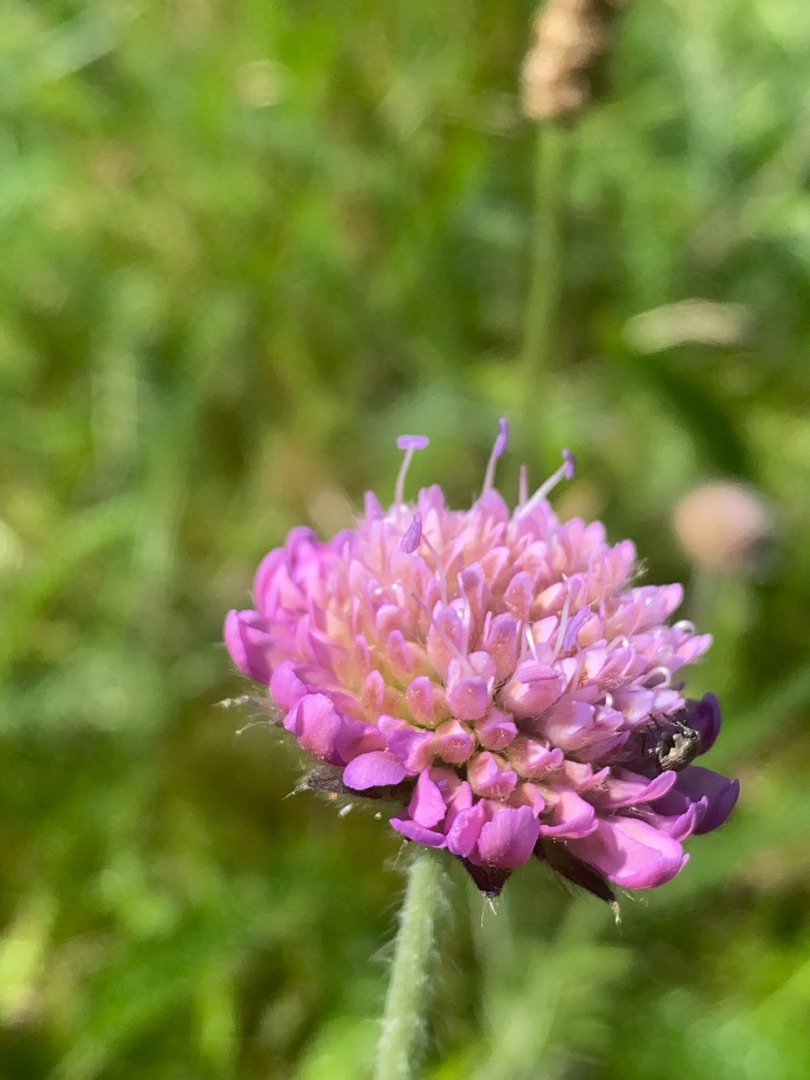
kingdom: Plantae
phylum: Tracheophyta
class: Magnoliopsida
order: Dipsacales
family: Caprifoliaceae
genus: Knautia
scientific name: Knautia arvensis
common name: Blåhat
